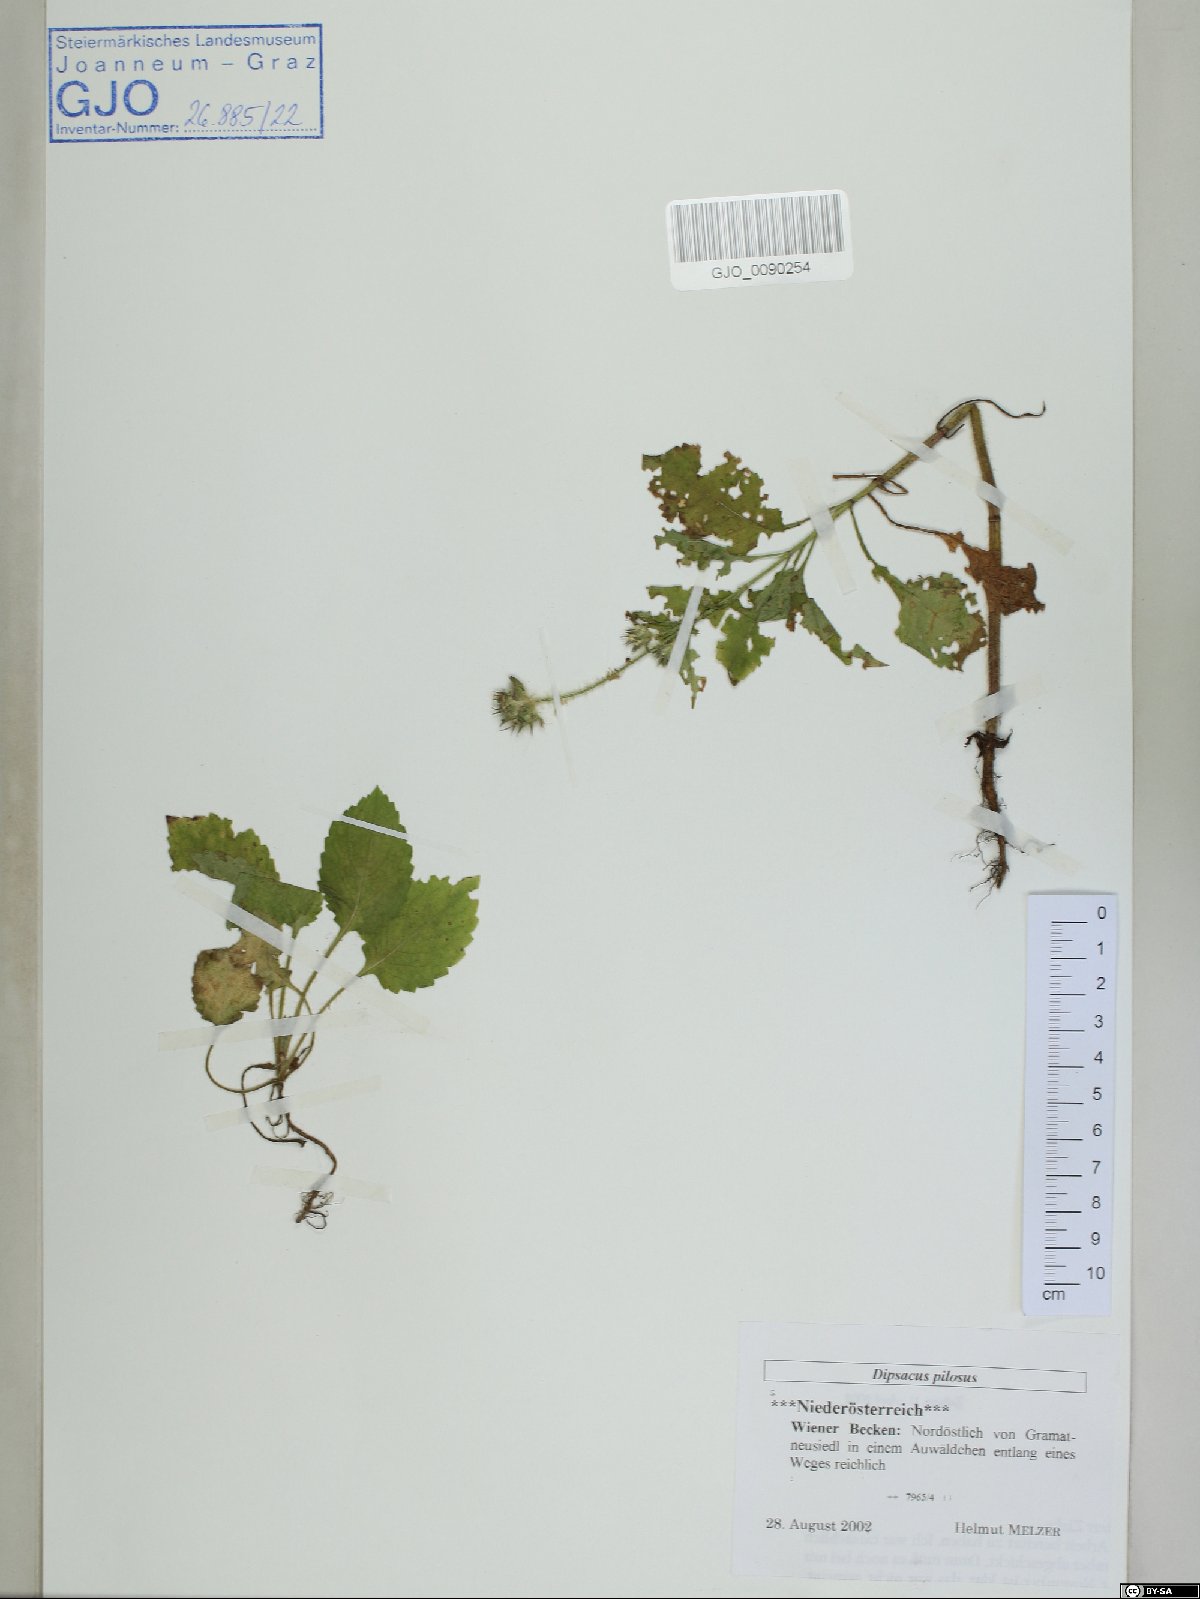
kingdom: Plantae
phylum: Tracheophyta
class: Magnoliopsida
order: Dipsacales
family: Caprifoliaceae
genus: Dipsacus
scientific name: Dipsacus pilosus
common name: Small teasel
